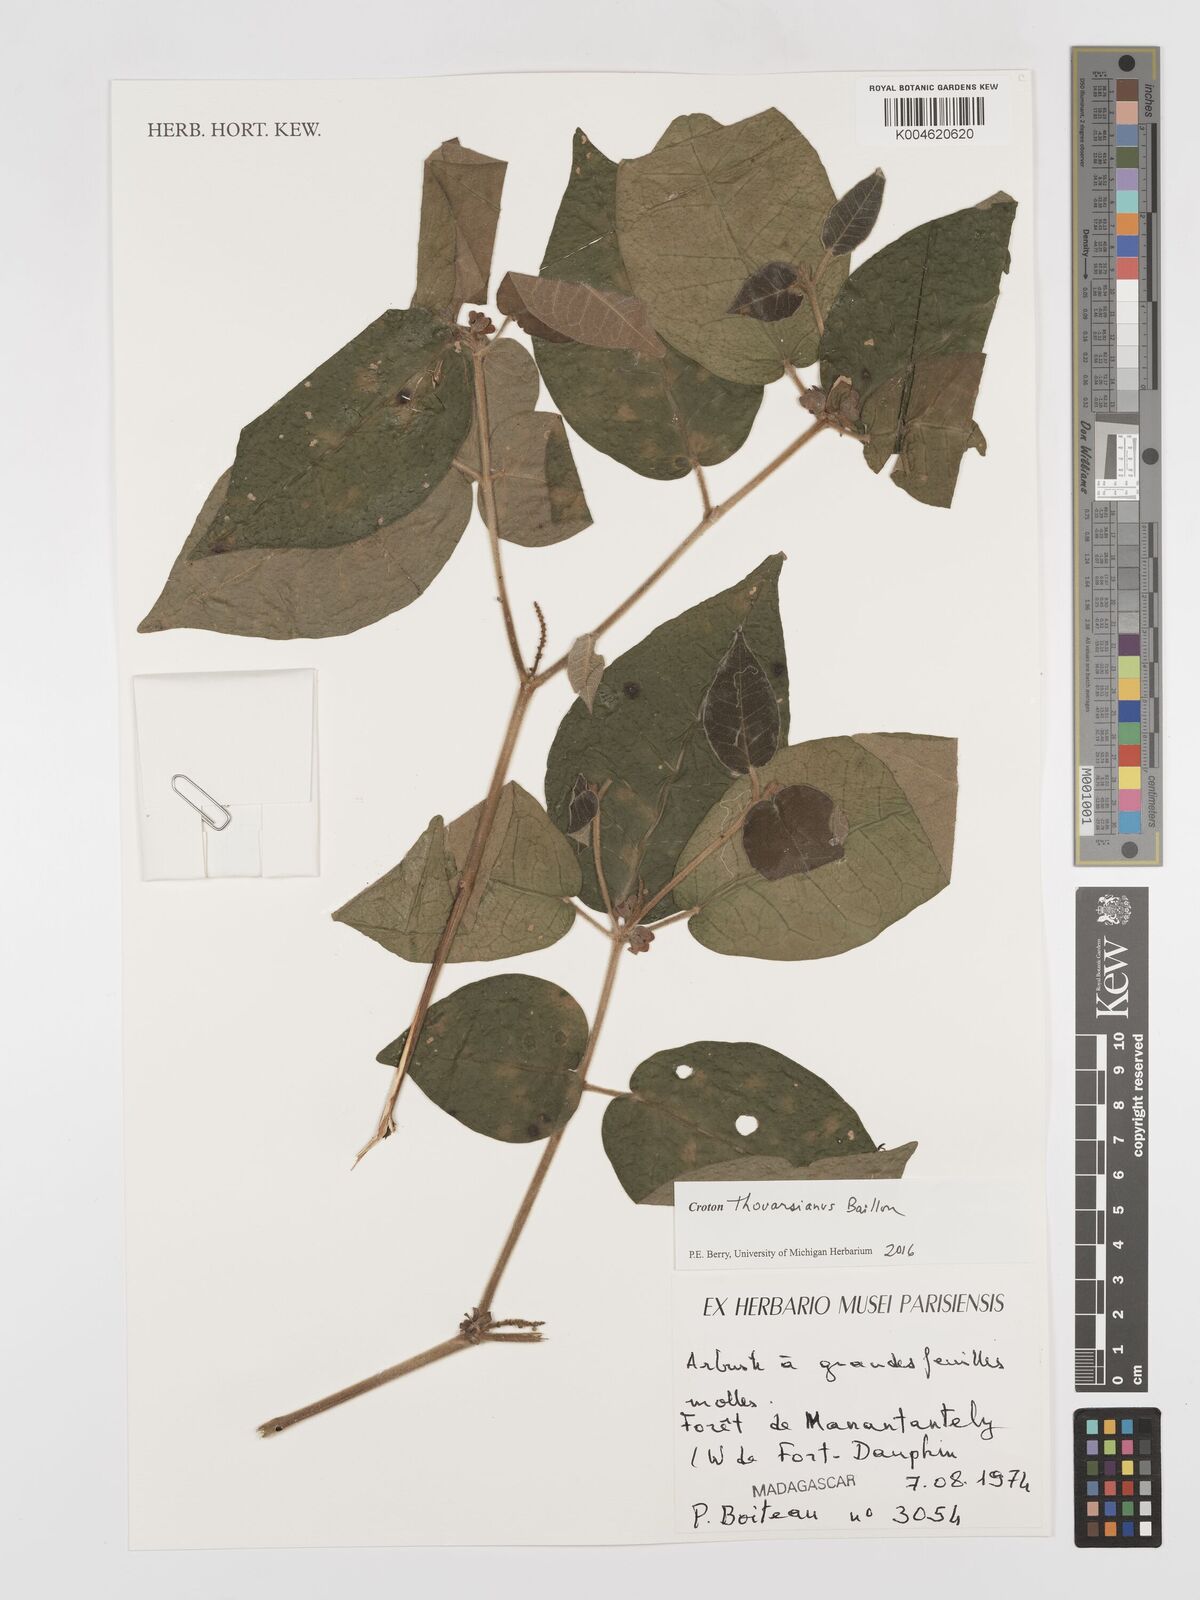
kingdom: Plantae
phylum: Tracheophyta
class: Magnoliopsida
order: Malpighiales
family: Euphorbiaceae
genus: Croton
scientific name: Croton thouarsianus
